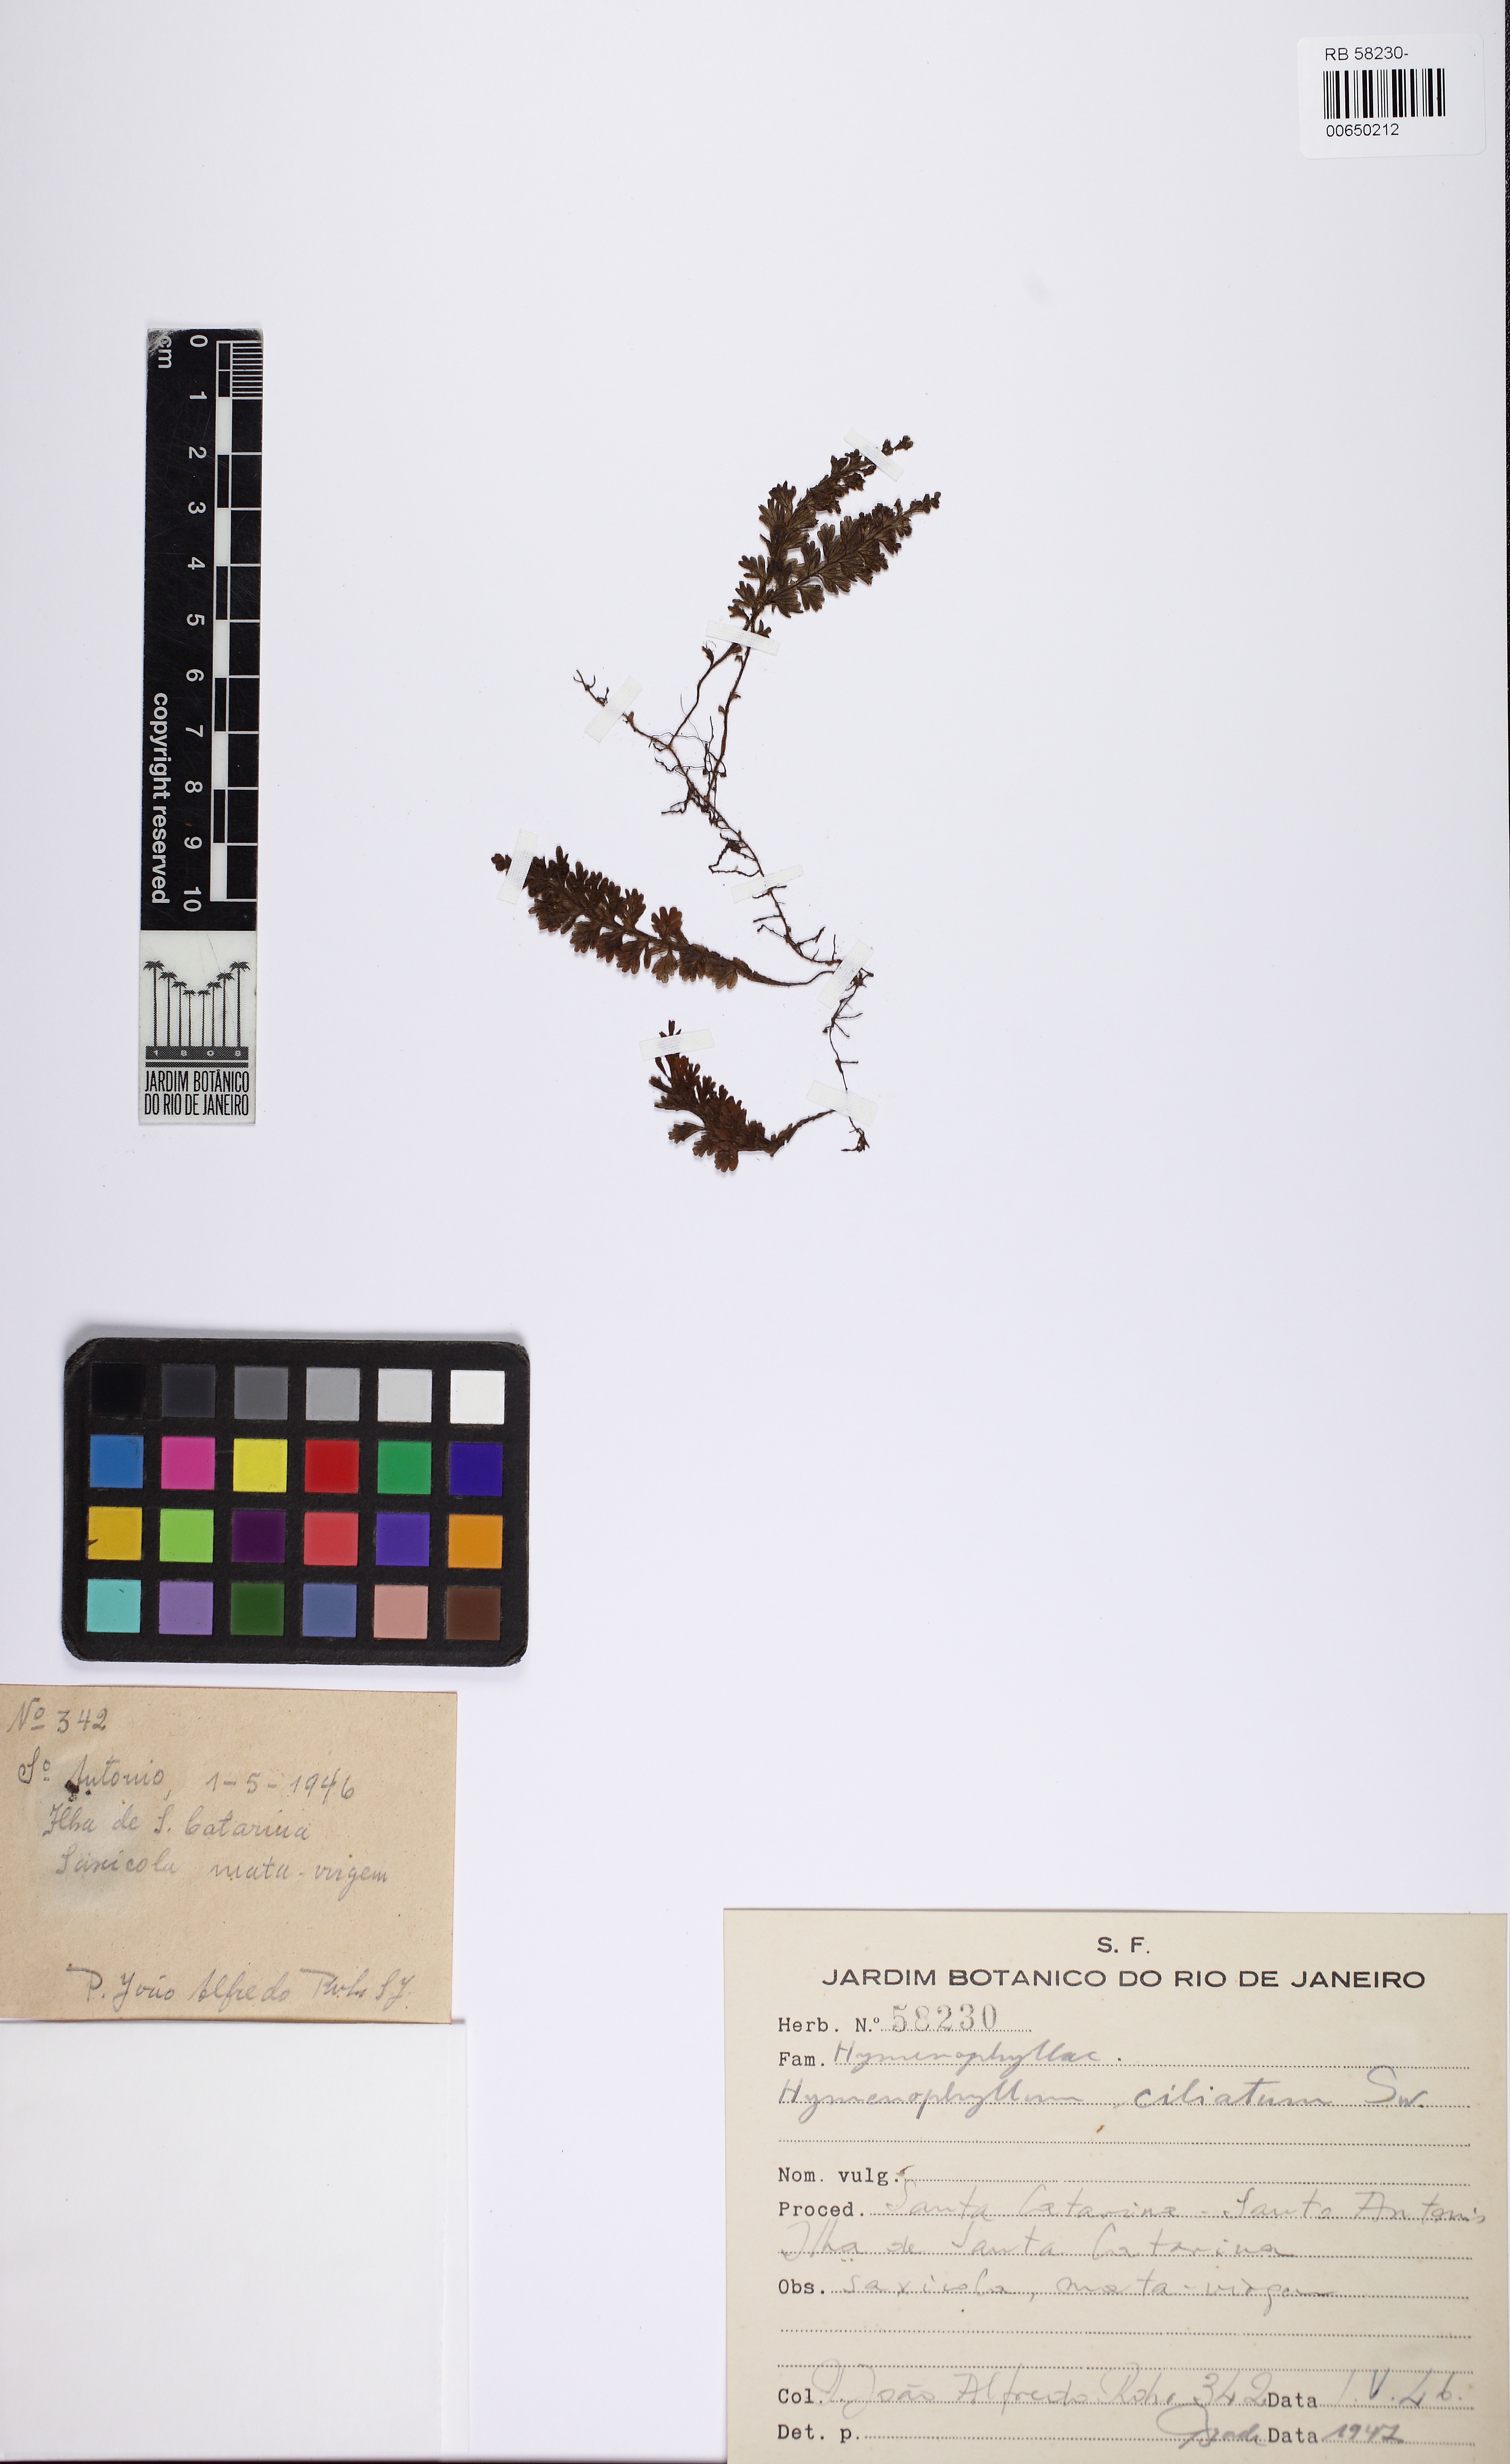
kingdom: Plantae
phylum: Tracheophyta
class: Polypodiopsida
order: Hymenophyllales
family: Hymenophyllaceae
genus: Hymenophyllum
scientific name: Hymenophyllum hirsutum
